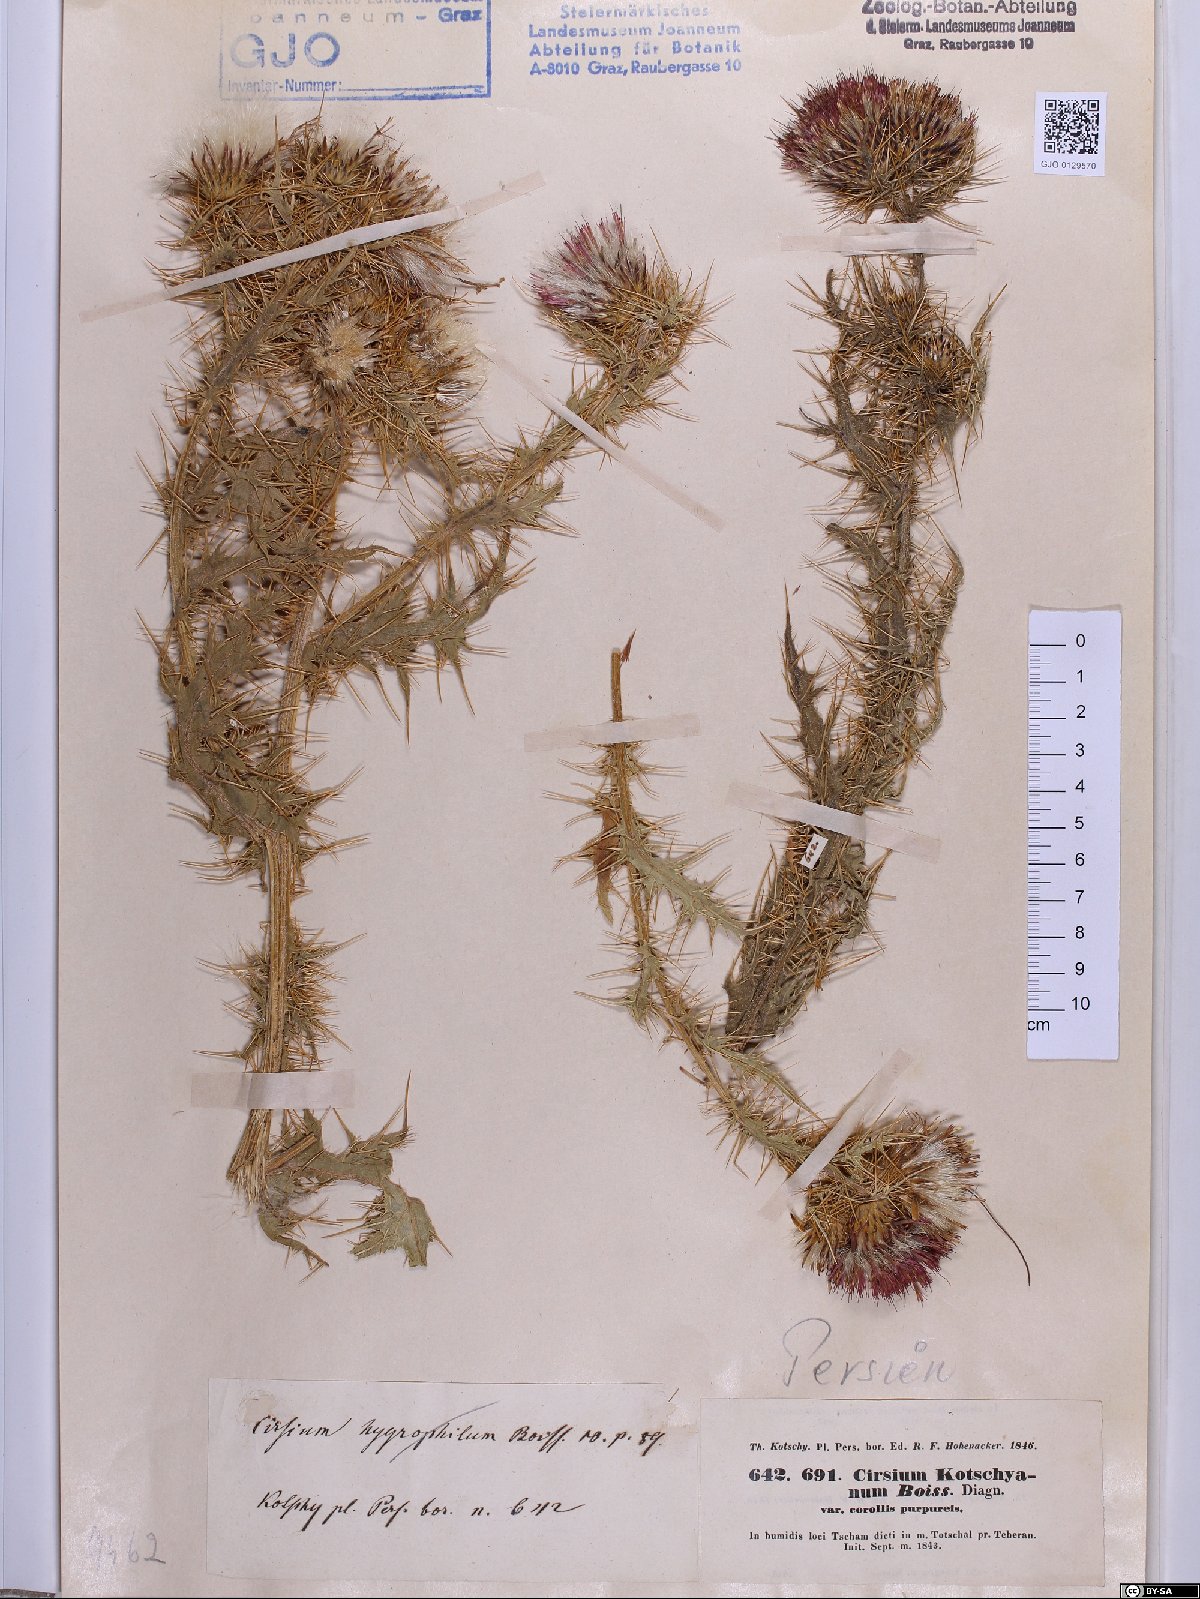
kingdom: Plantae
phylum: Tracheophyta
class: Magnoliopsida
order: Asterales
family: Asteraceae
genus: Cirsium
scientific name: Cirsium libanoticum
